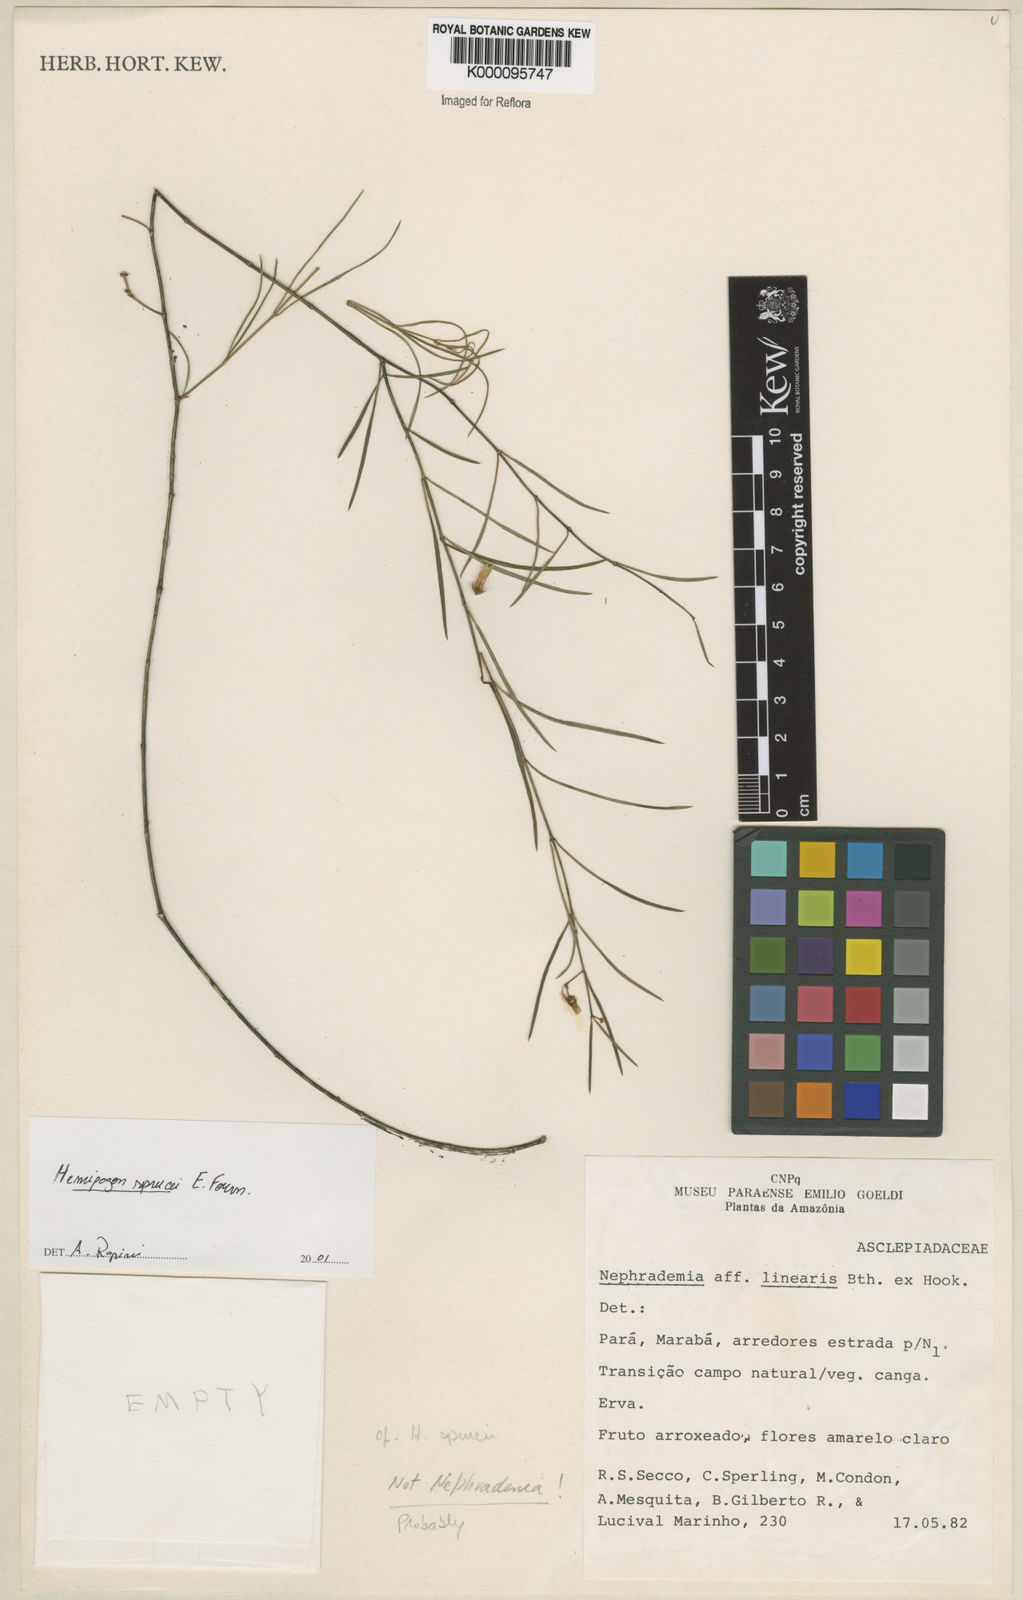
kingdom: Plantae
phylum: Tracheophyta
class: Magnoliopsida
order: Gentianales
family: Apocynaceae
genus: Hemipogon
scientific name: Hemipogon sprucei
